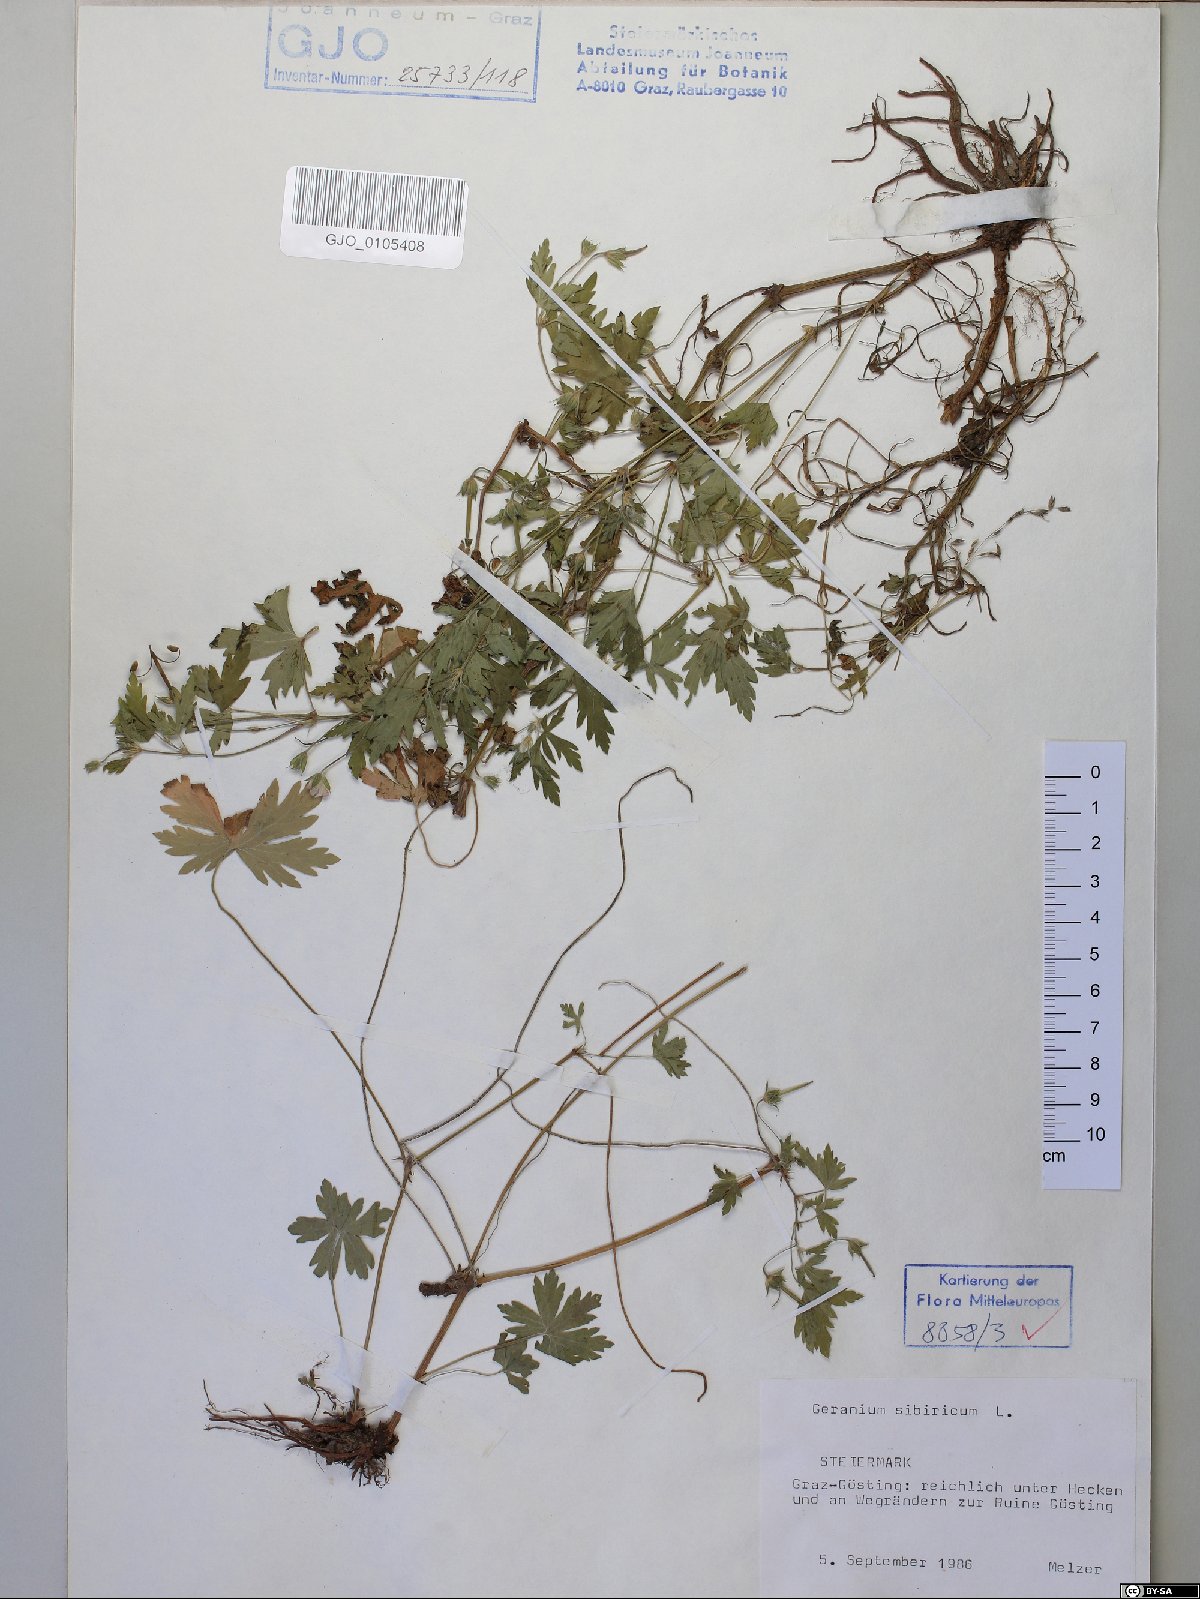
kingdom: Plantae
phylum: Tracheophyta
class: Magnoliopsida
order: Geraniales
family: Geraniaceae
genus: Geranium
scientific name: Geranium sibiricum
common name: Siberian crane's-bill
